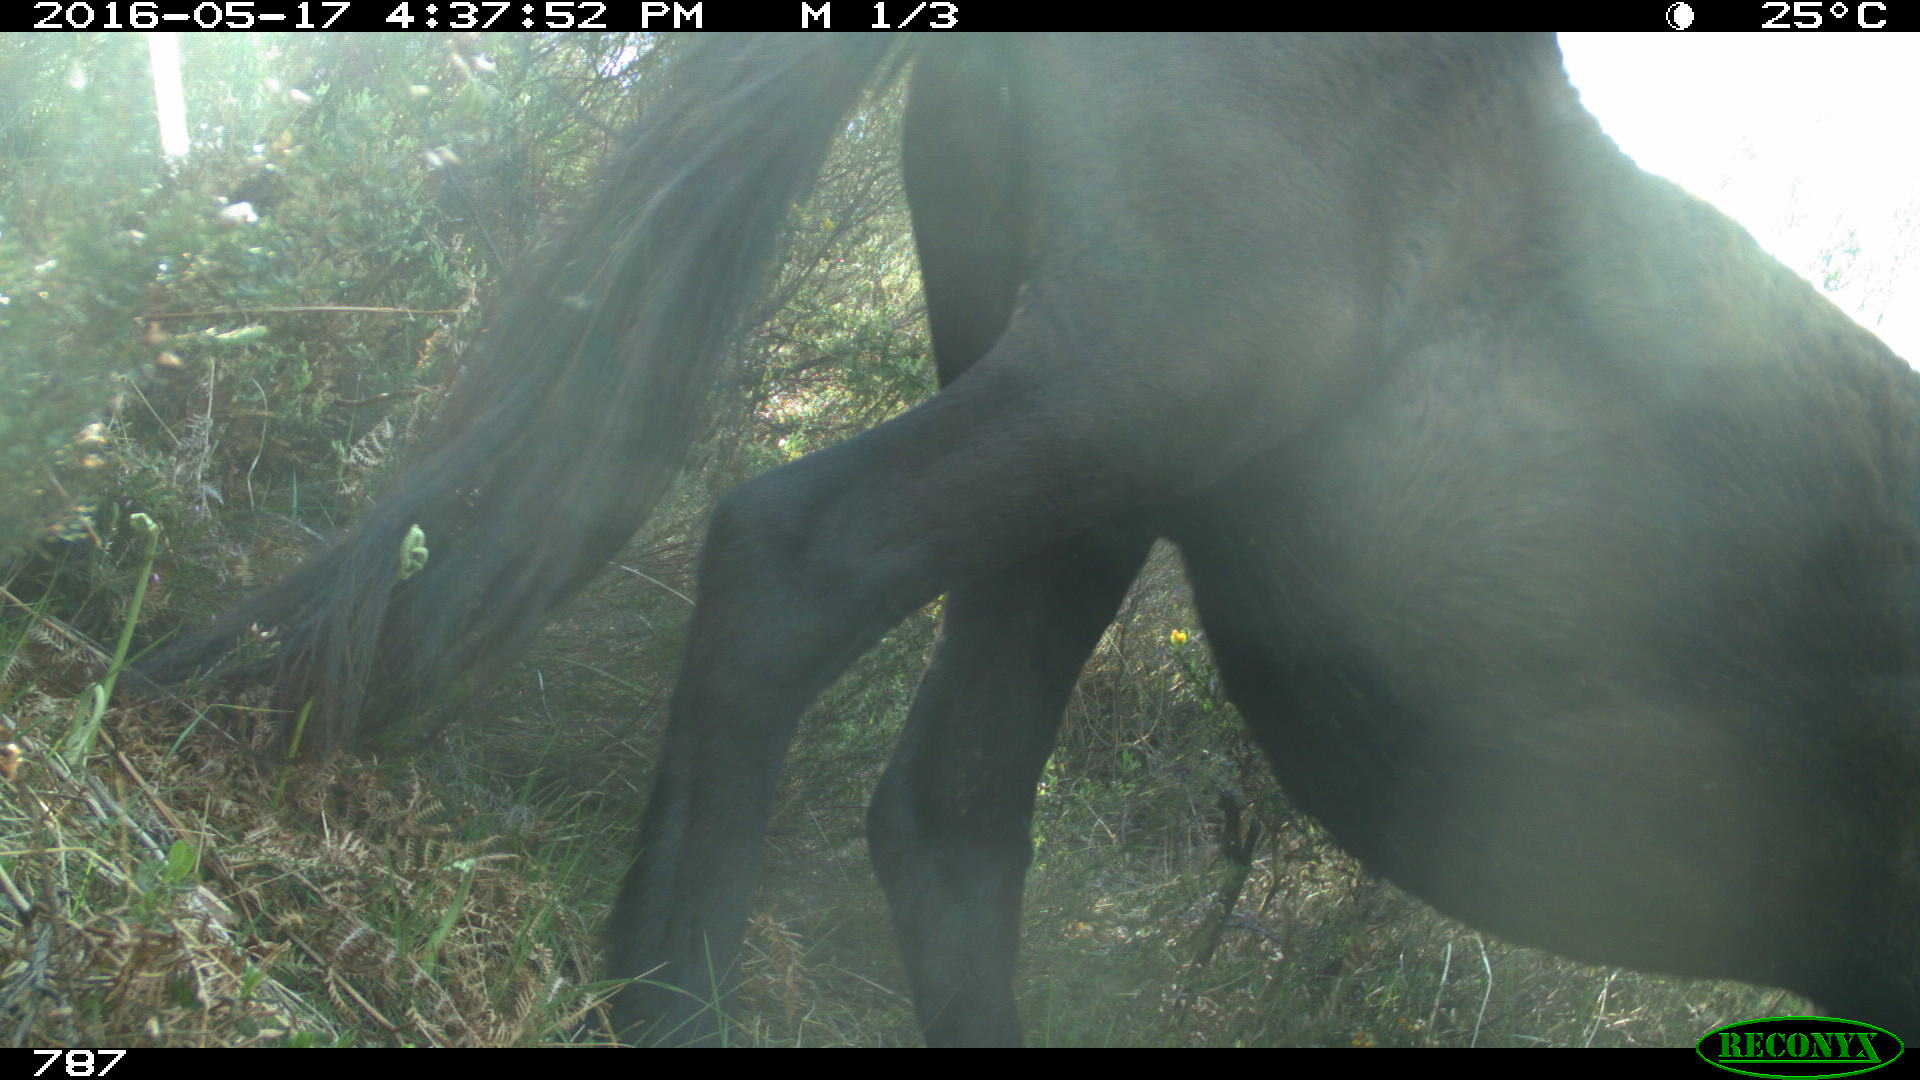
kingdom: Animalia
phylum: Chordata
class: Mammalia
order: Perissodactyla
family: Equidae
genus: Equus
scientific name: Equus caballus
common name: Horse
